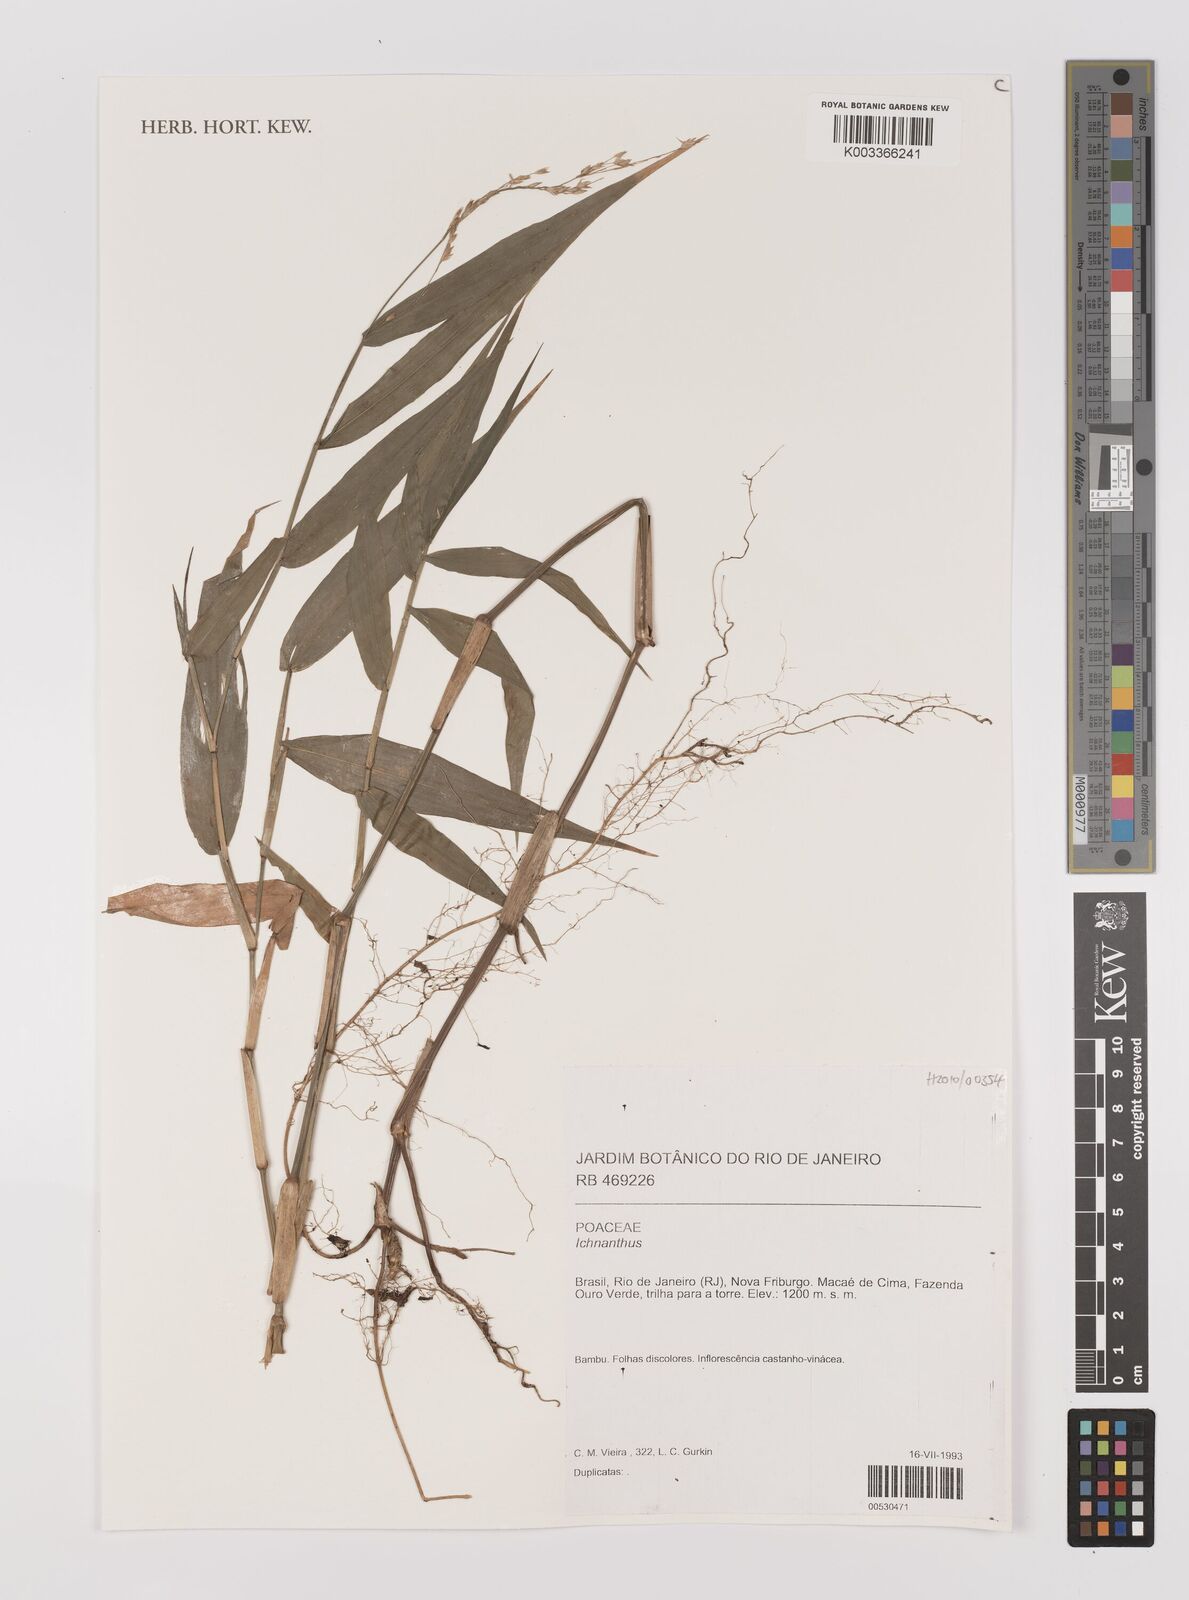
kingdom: Plantae
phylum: Tracheophyta
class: Liliopsida
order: Poales
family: Poaceae
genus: Ichnanthus
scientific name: Ichnanthus
